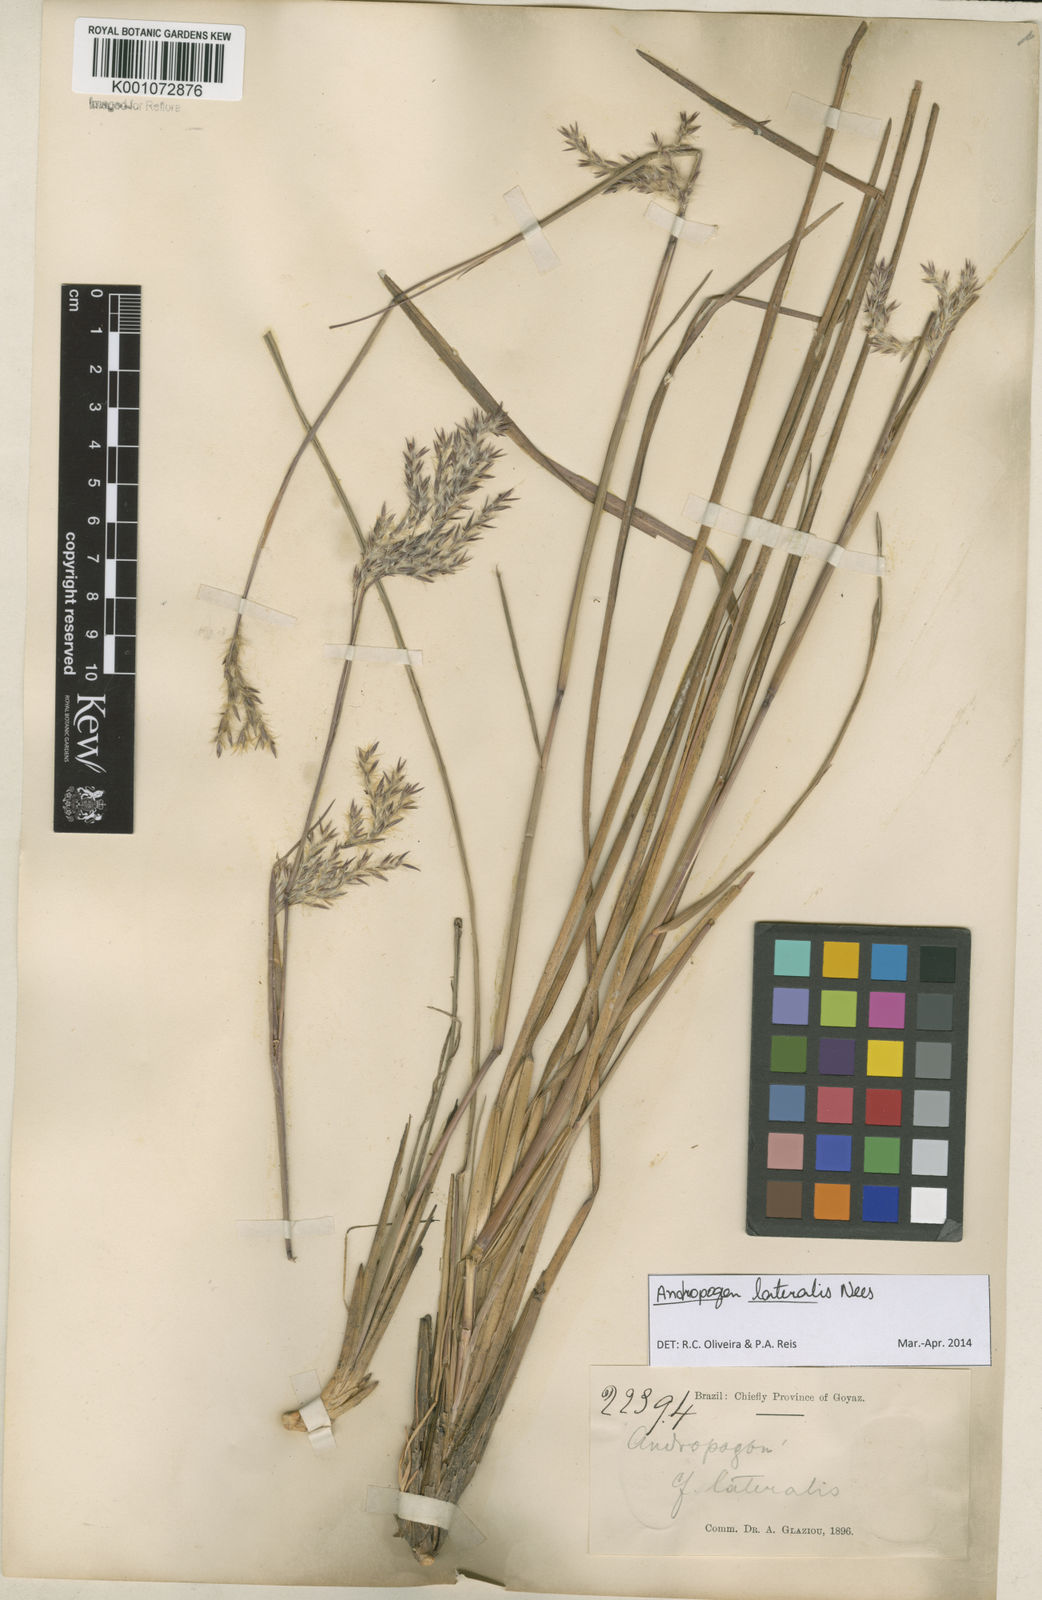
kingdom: Plantae
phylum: Tracheophyta
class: Liliopsida
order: Poales
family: Poaceae
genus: Andropogon
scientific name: Andropogon lateralis
